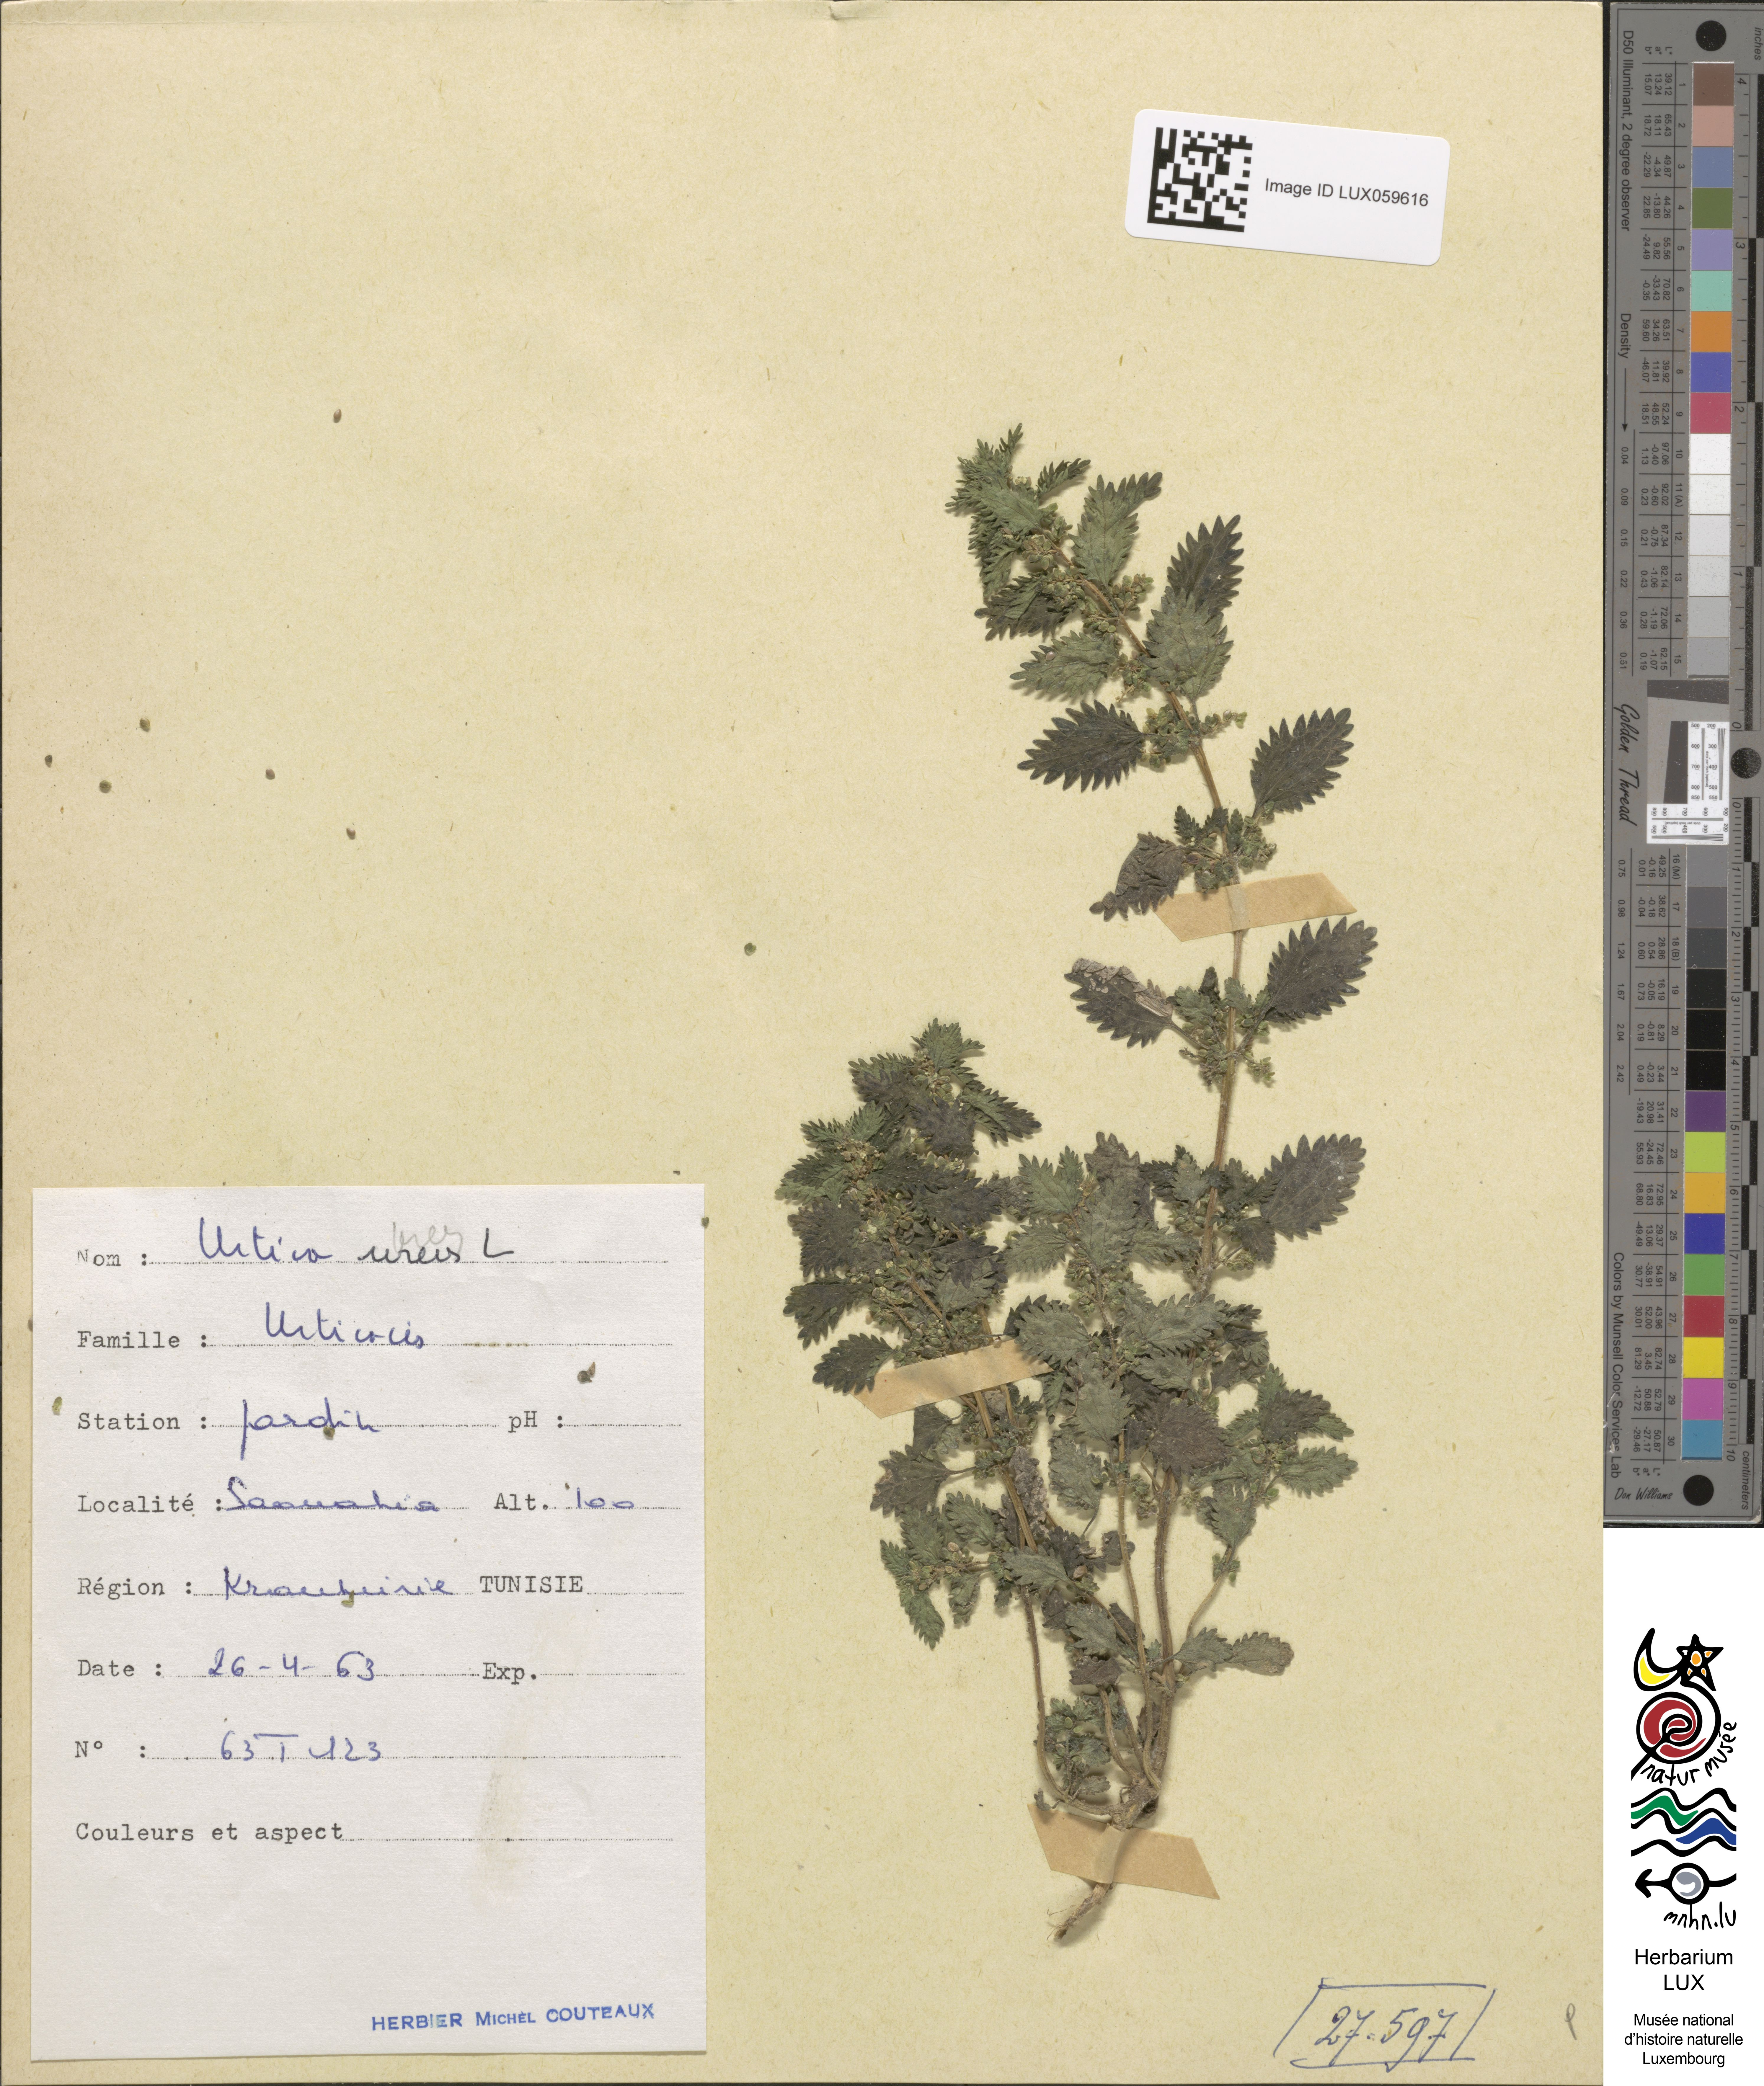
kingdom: Plantae
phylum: Tracheophyta
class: Magnoliopsida
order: Rosales
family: Urticaceae
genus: Urtica
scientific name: Urtica urens
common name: Dwarf nettle
